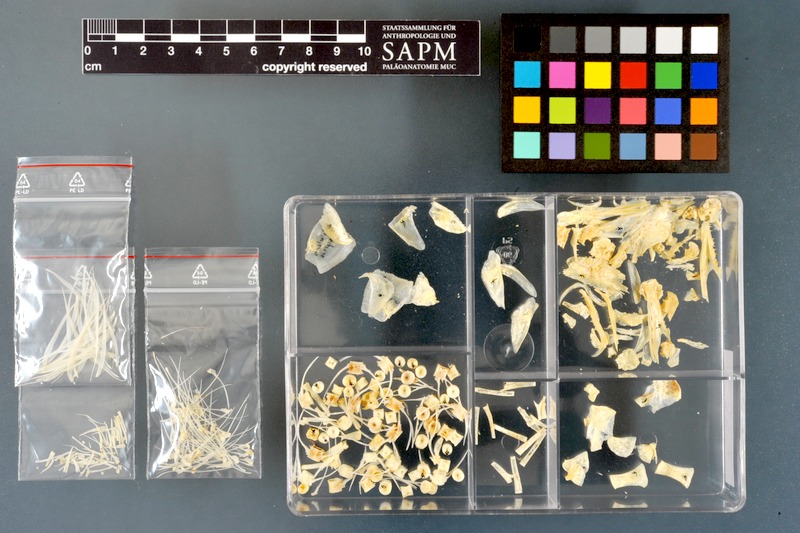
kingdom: Animalia
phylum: Chordata
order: Perciformes
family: Ephippidae
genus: Platax
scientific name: Platax teira
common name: Longfin baitfish
